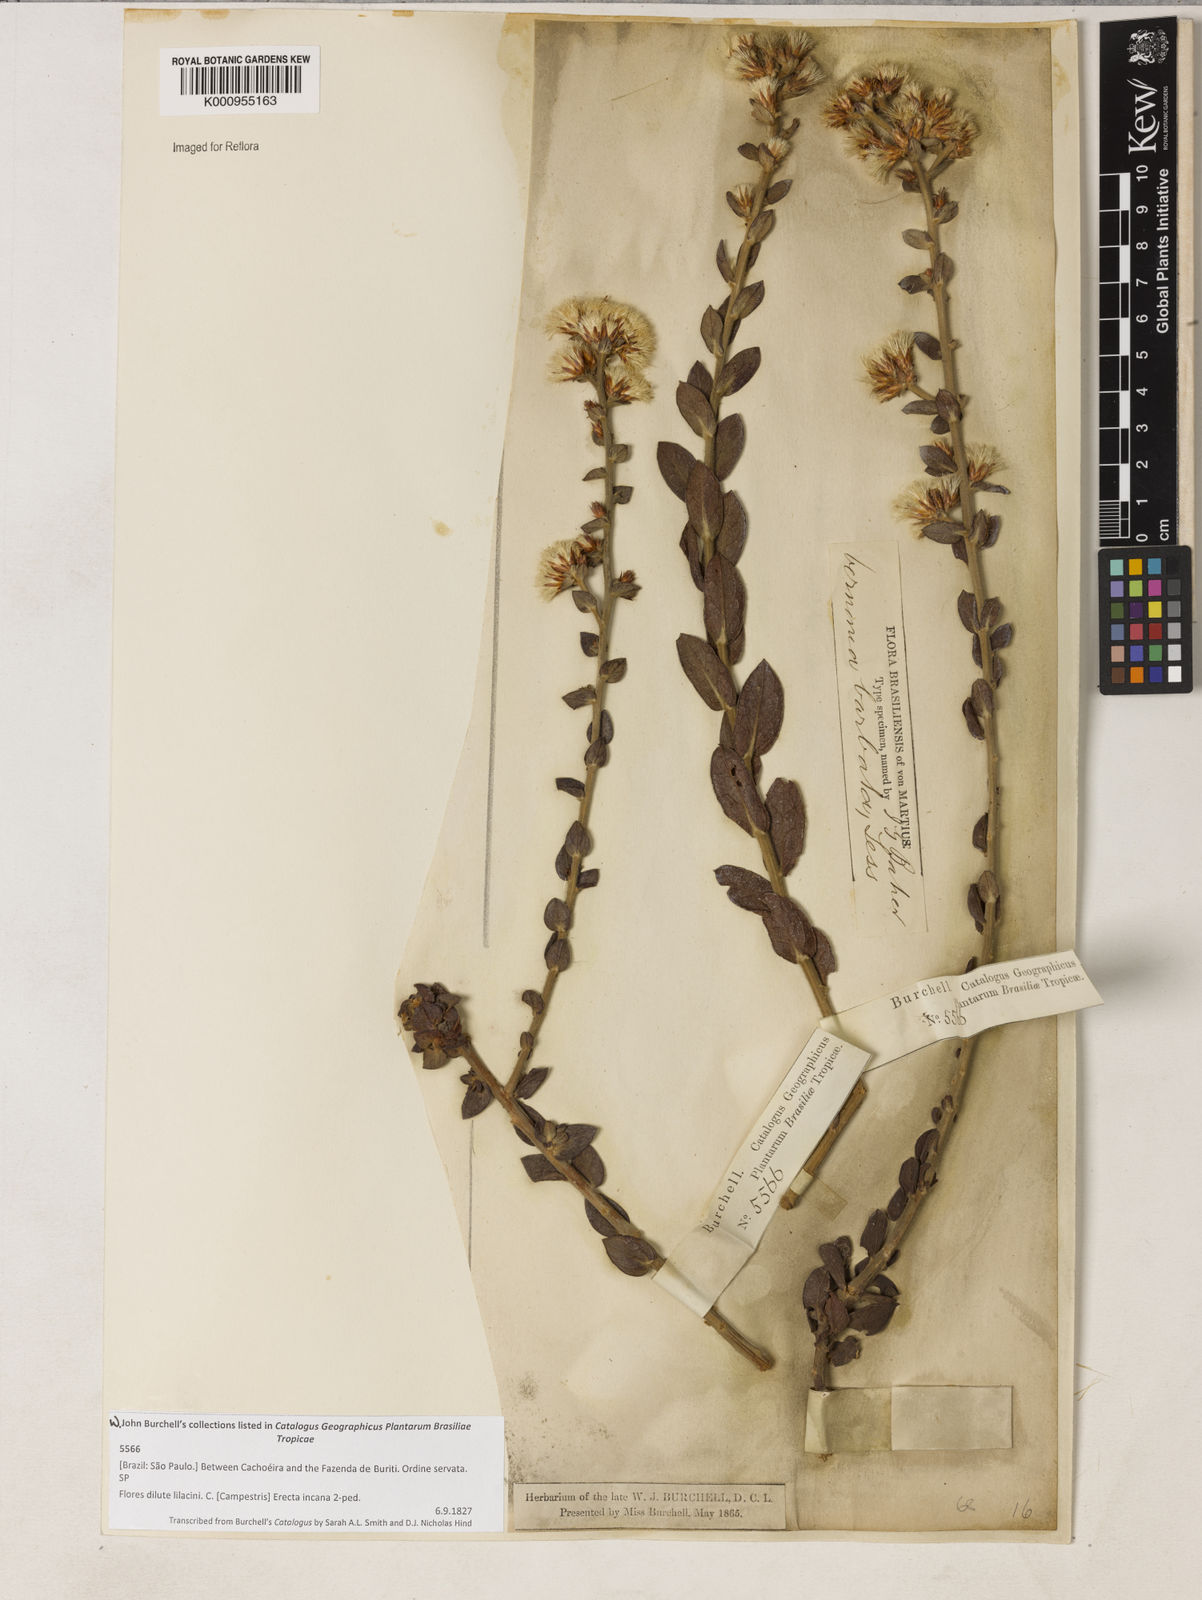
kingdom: Plantae
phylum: Tracheophyta
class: Magnoliopsida
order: Asterales
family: Asteraceae
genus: Lepidaploa
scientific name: Lepidaploa barbata
